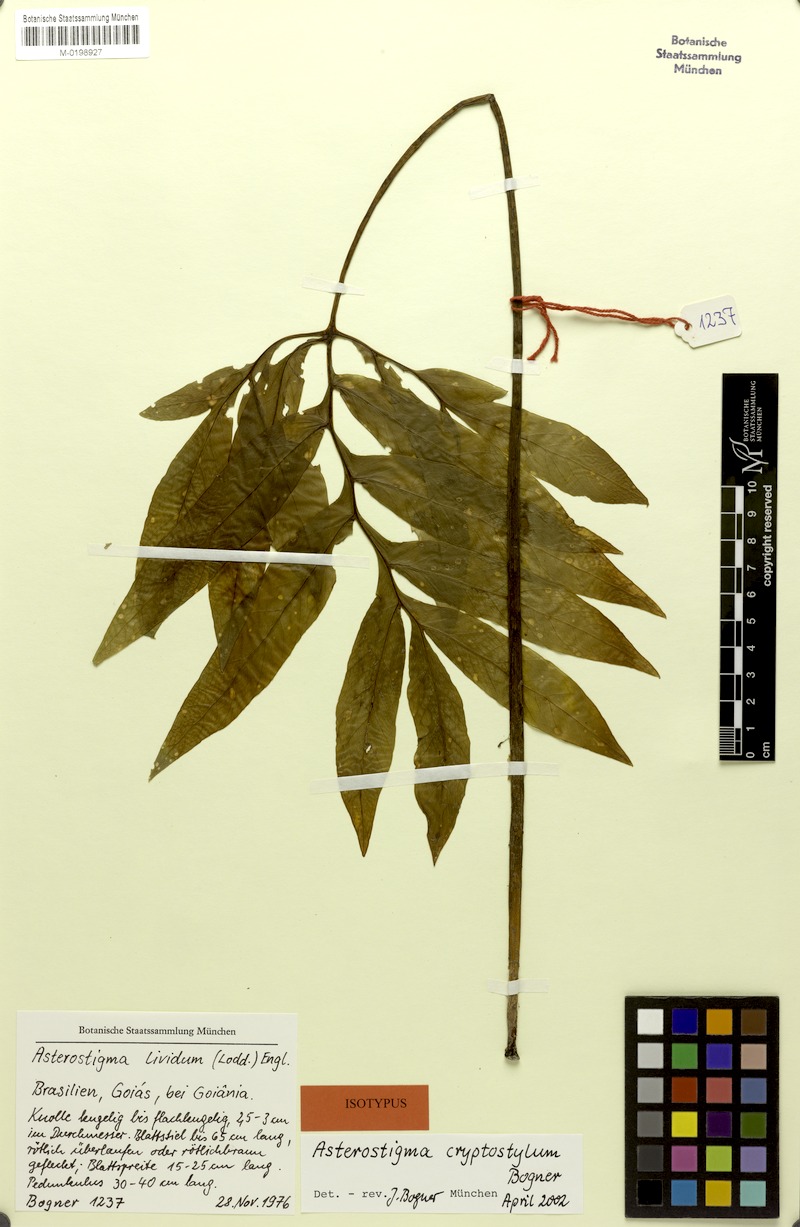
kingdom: Plantae
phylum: Tracheophyta
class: Liliopsida
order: Alismatales
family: Araceae
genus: Asterostigma
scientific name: Asterostigma cryptostylum
